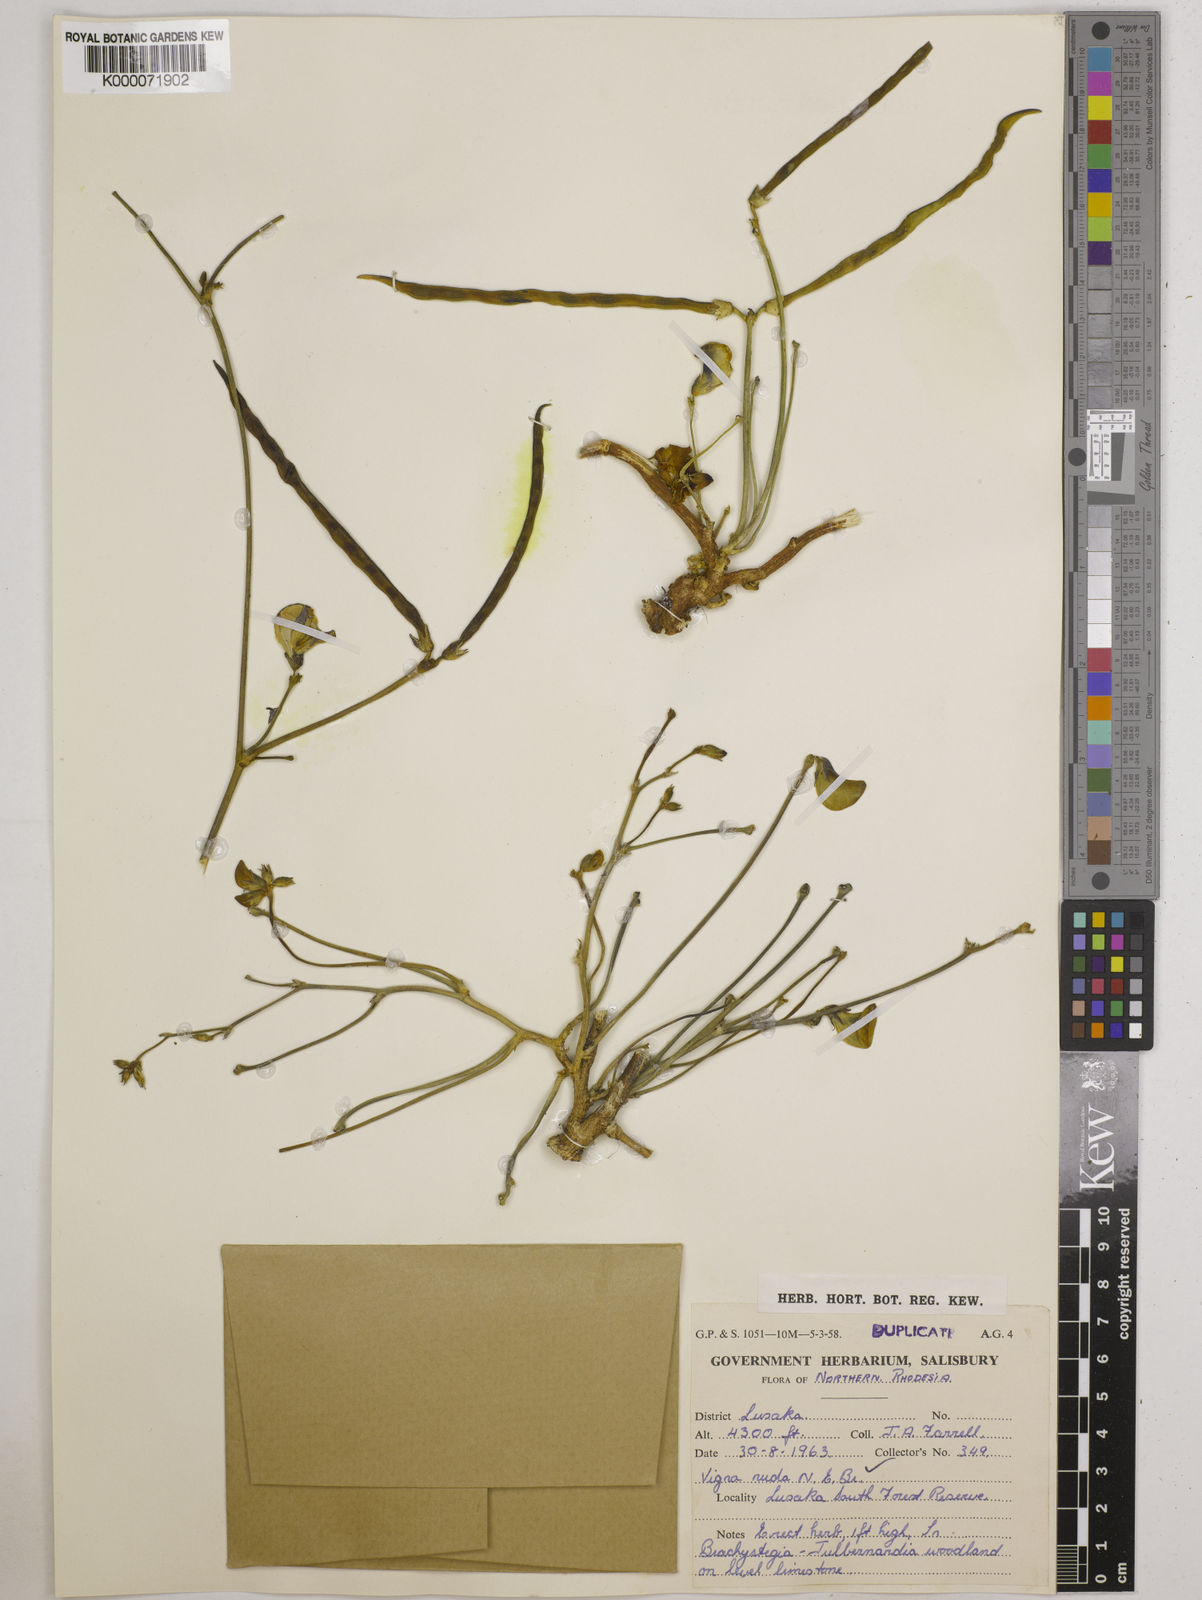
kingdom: Plantae
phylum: Tracheophyta
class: Magnoliopsida
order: Fabales
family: Fabaceae
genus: Vigna
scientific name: Vigna antunesii
